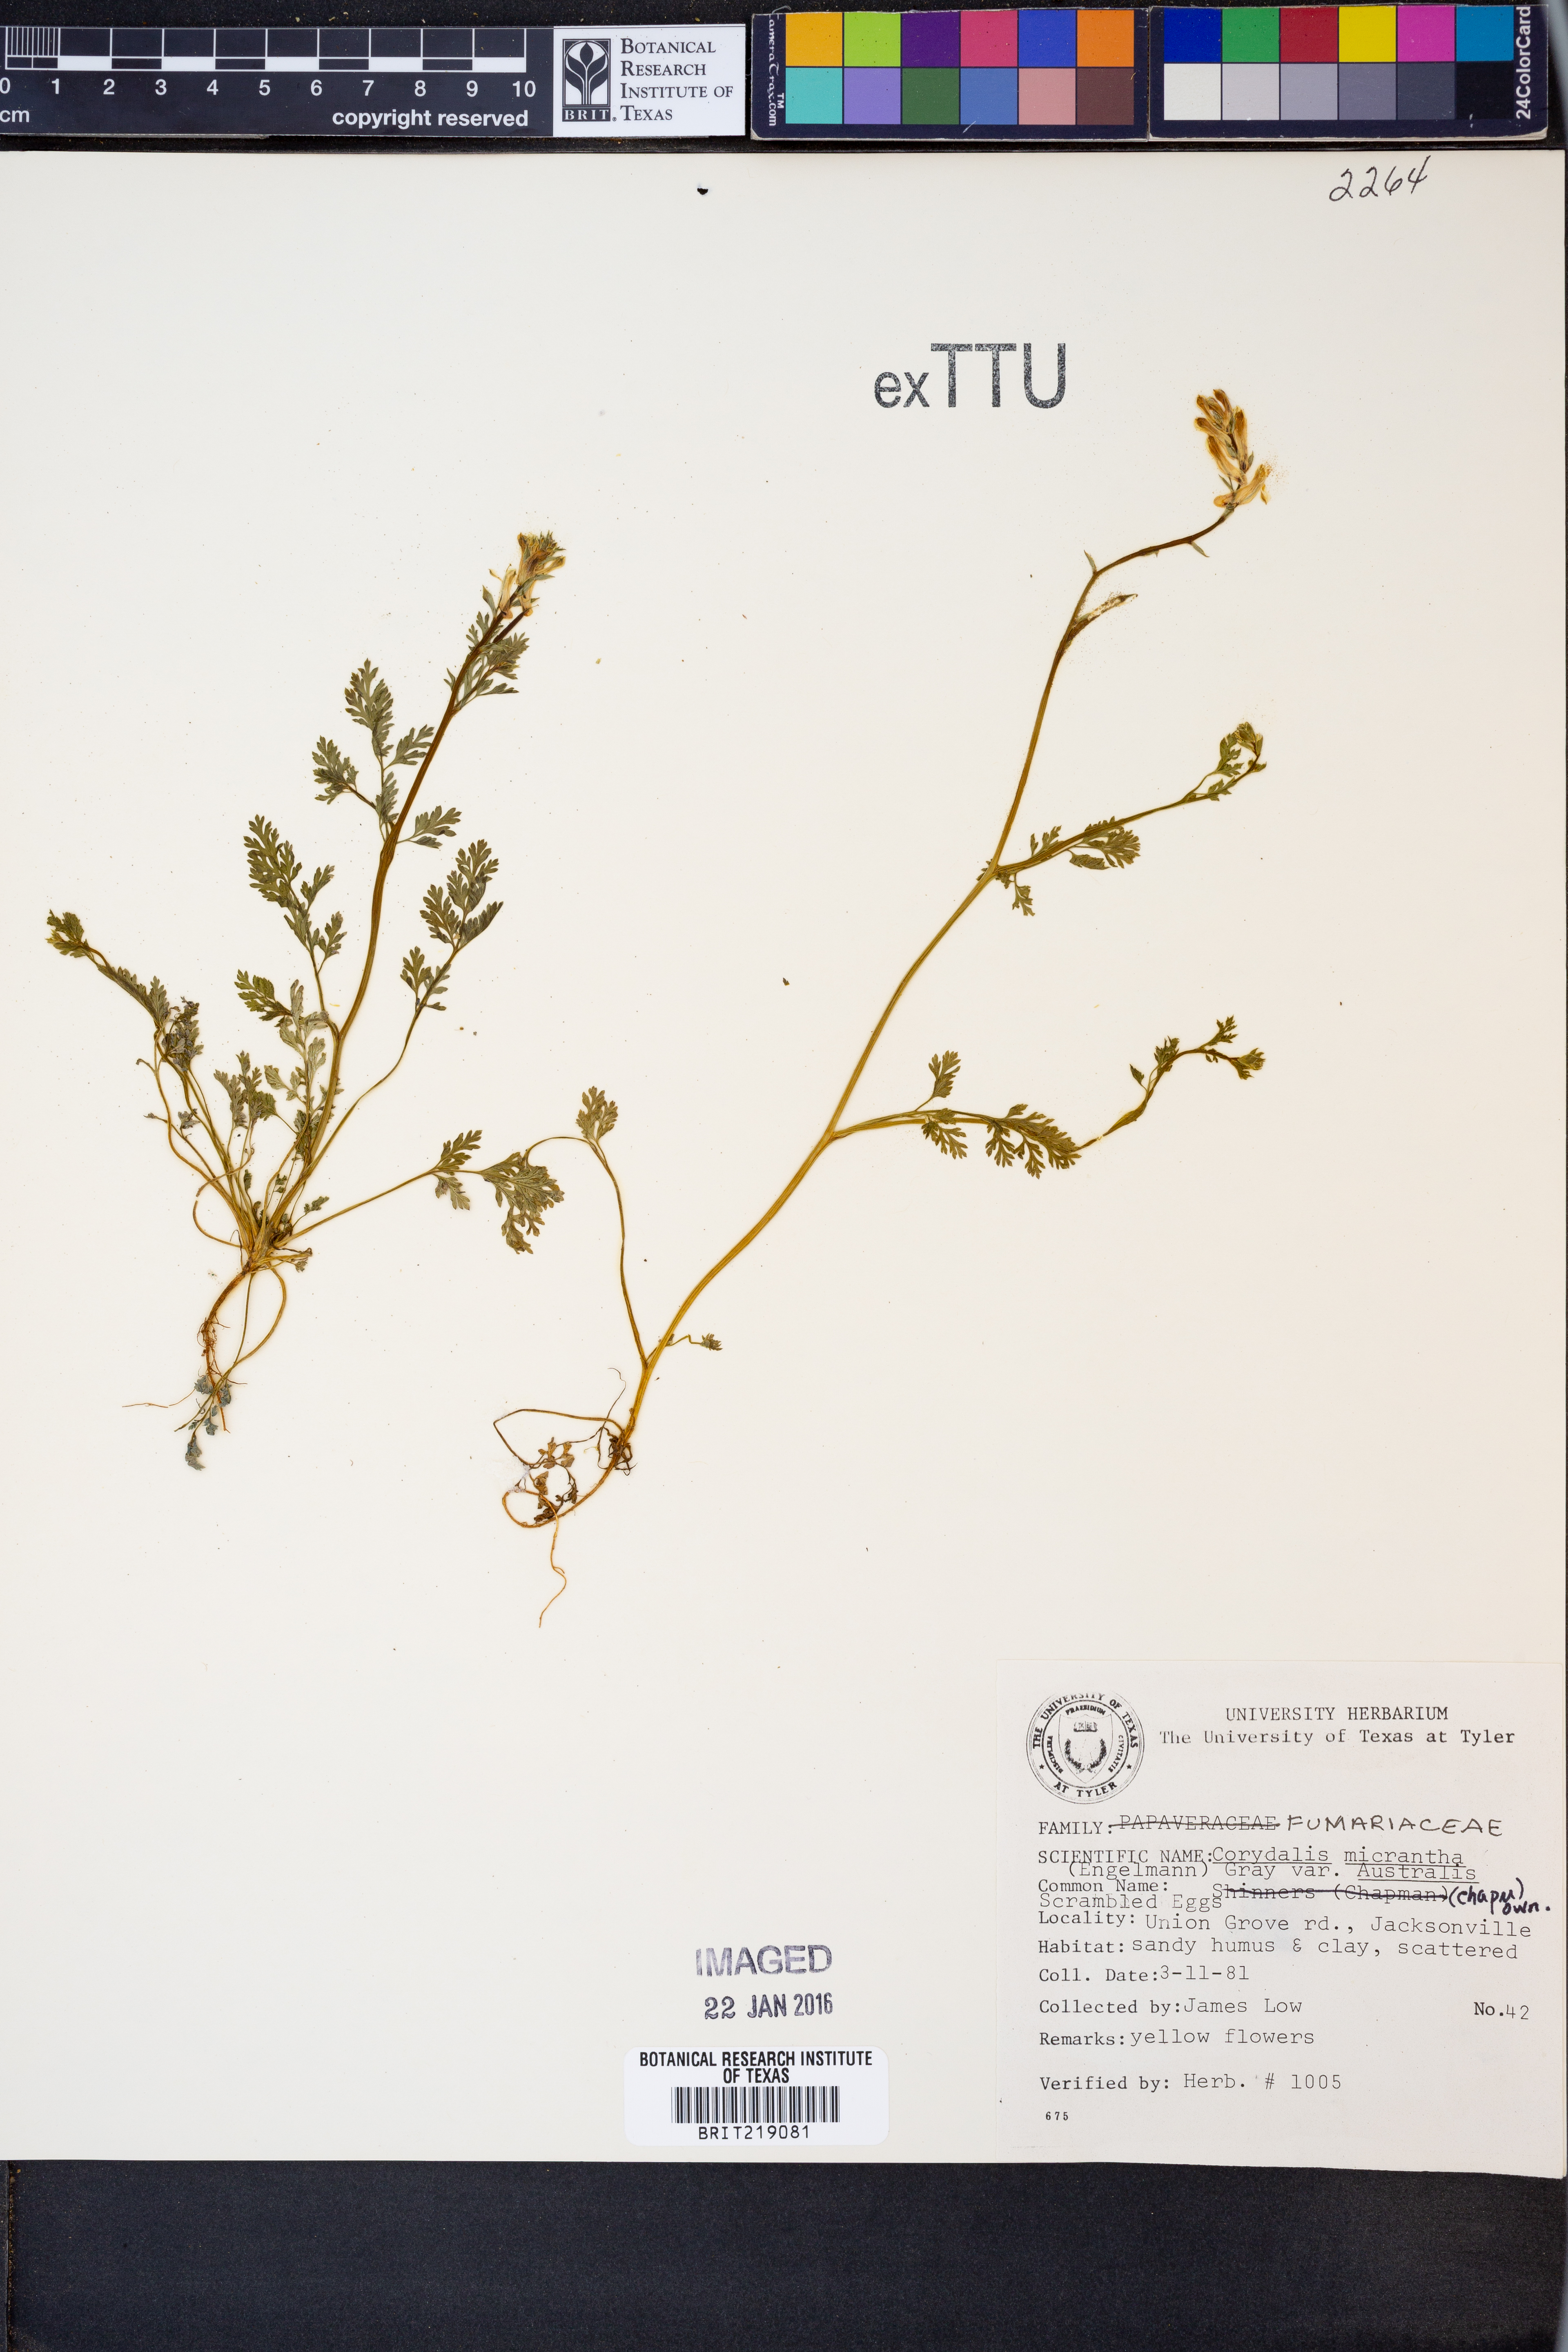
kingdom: Plantae
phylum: Tracheophyta
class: Magnoliopsida
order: Ranunculales
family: Papaveraceae
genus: Corydalis
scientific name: Corydalis micrantha
